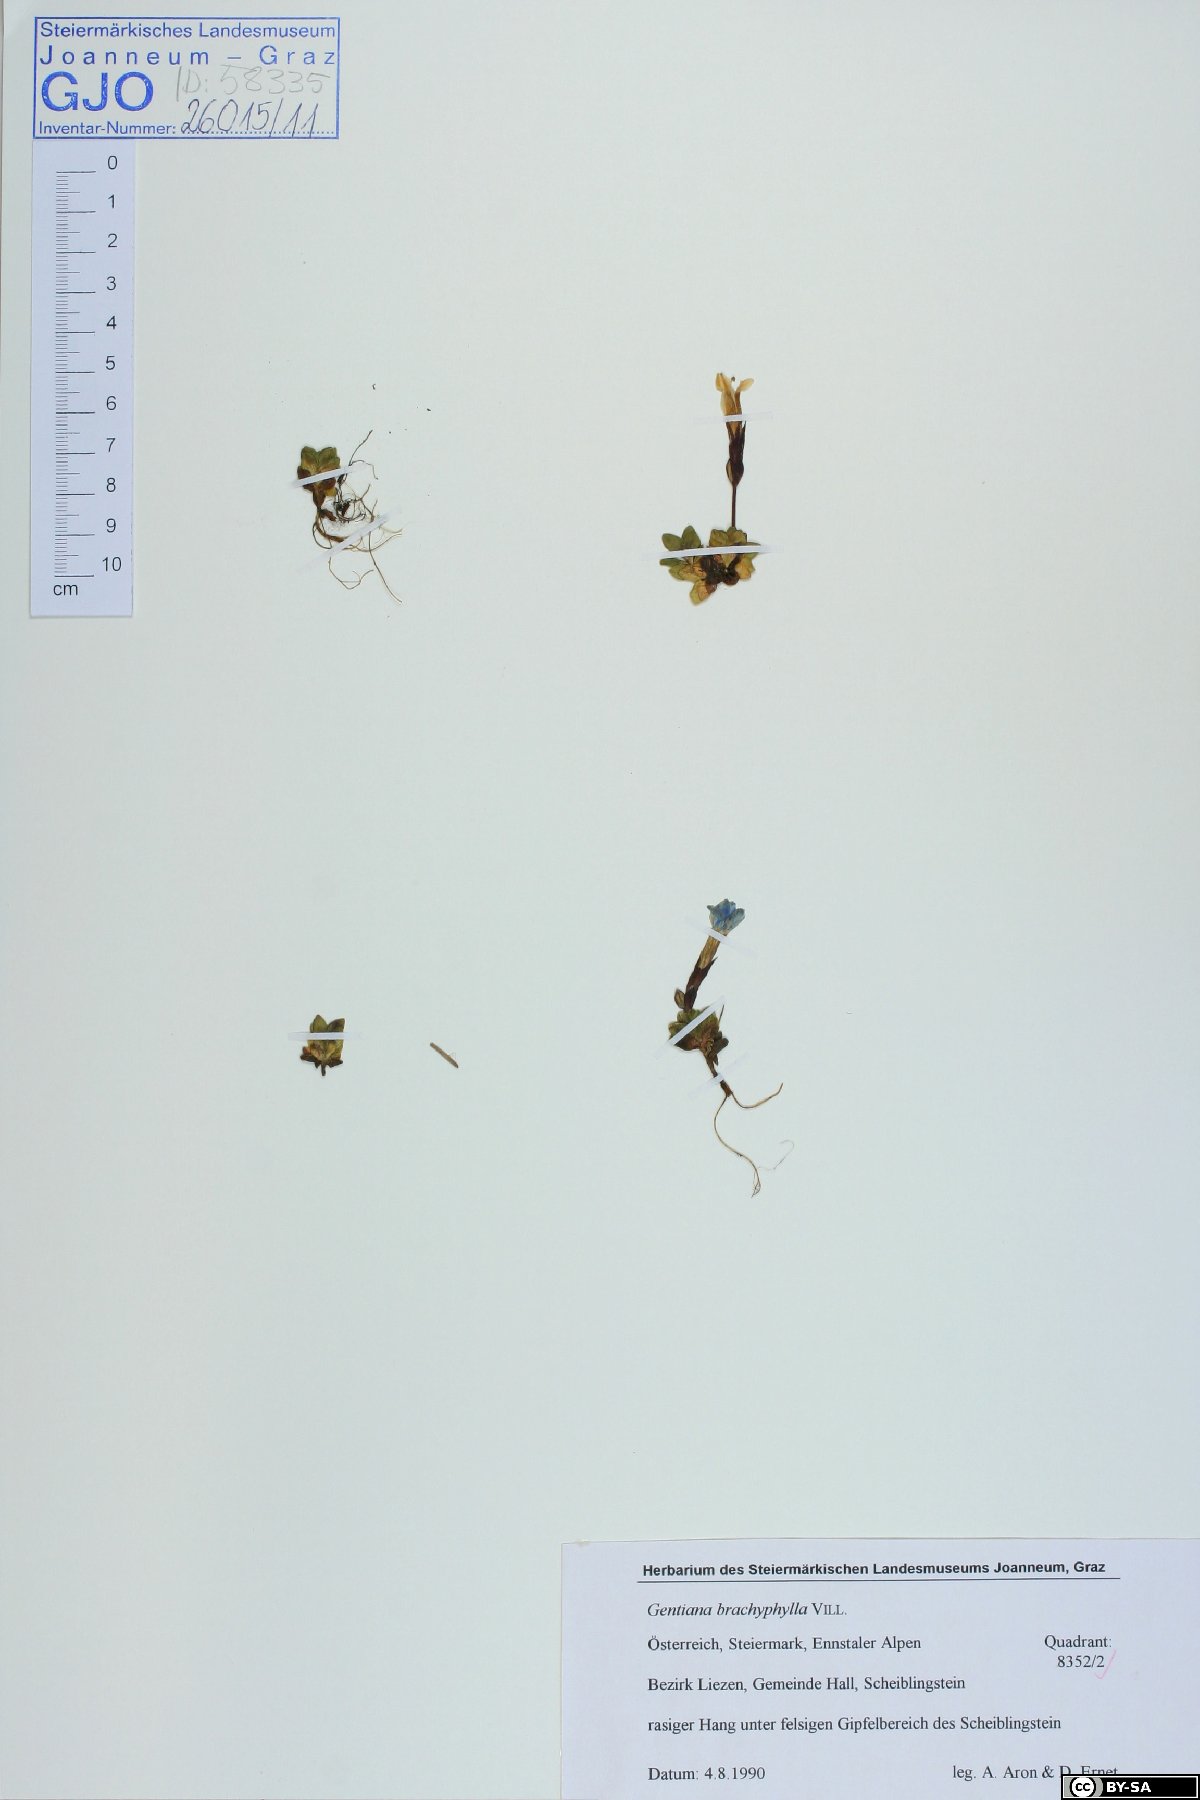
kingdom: Plantae
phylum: Tracheophyta
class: Magnoliopsida
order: Gentianales
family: Gentianaceae
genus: Gentiana
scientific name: Gentiana brachyphylla
